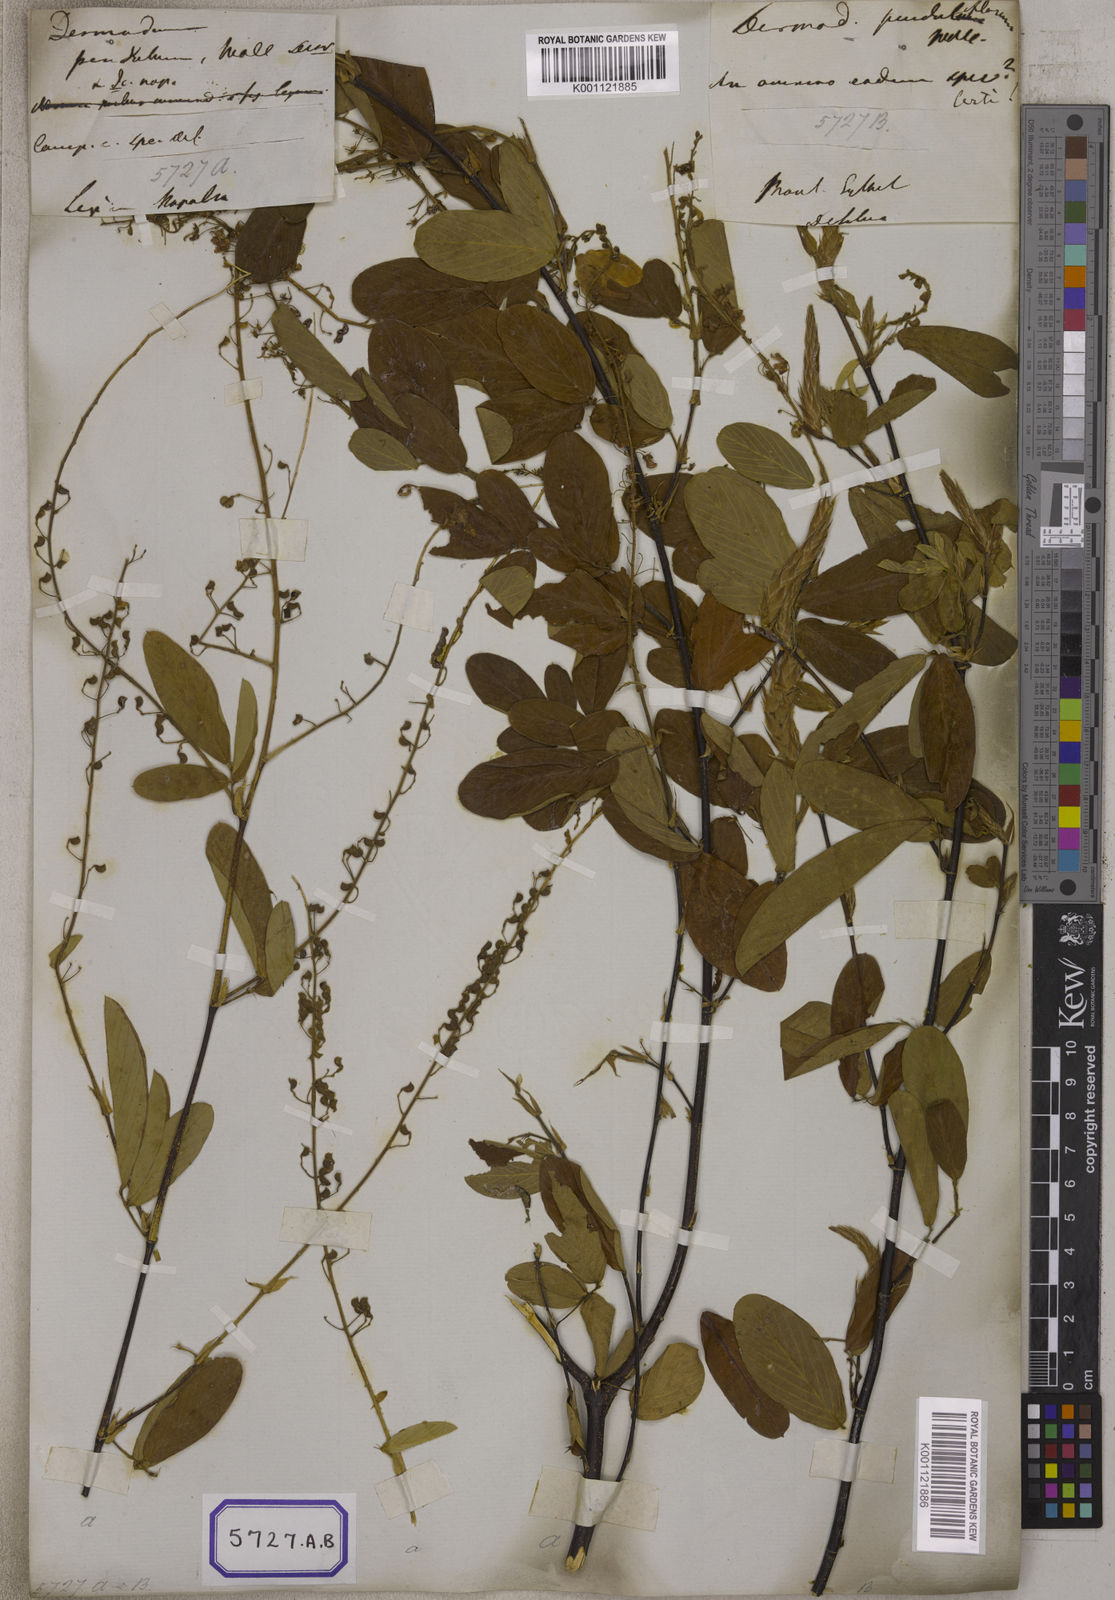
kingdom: Plantae
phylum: Tracheophyta
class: Magnoliopsida
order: Fabales
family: Fabaceae
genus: Tateishia
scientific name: Tateishia concinna
